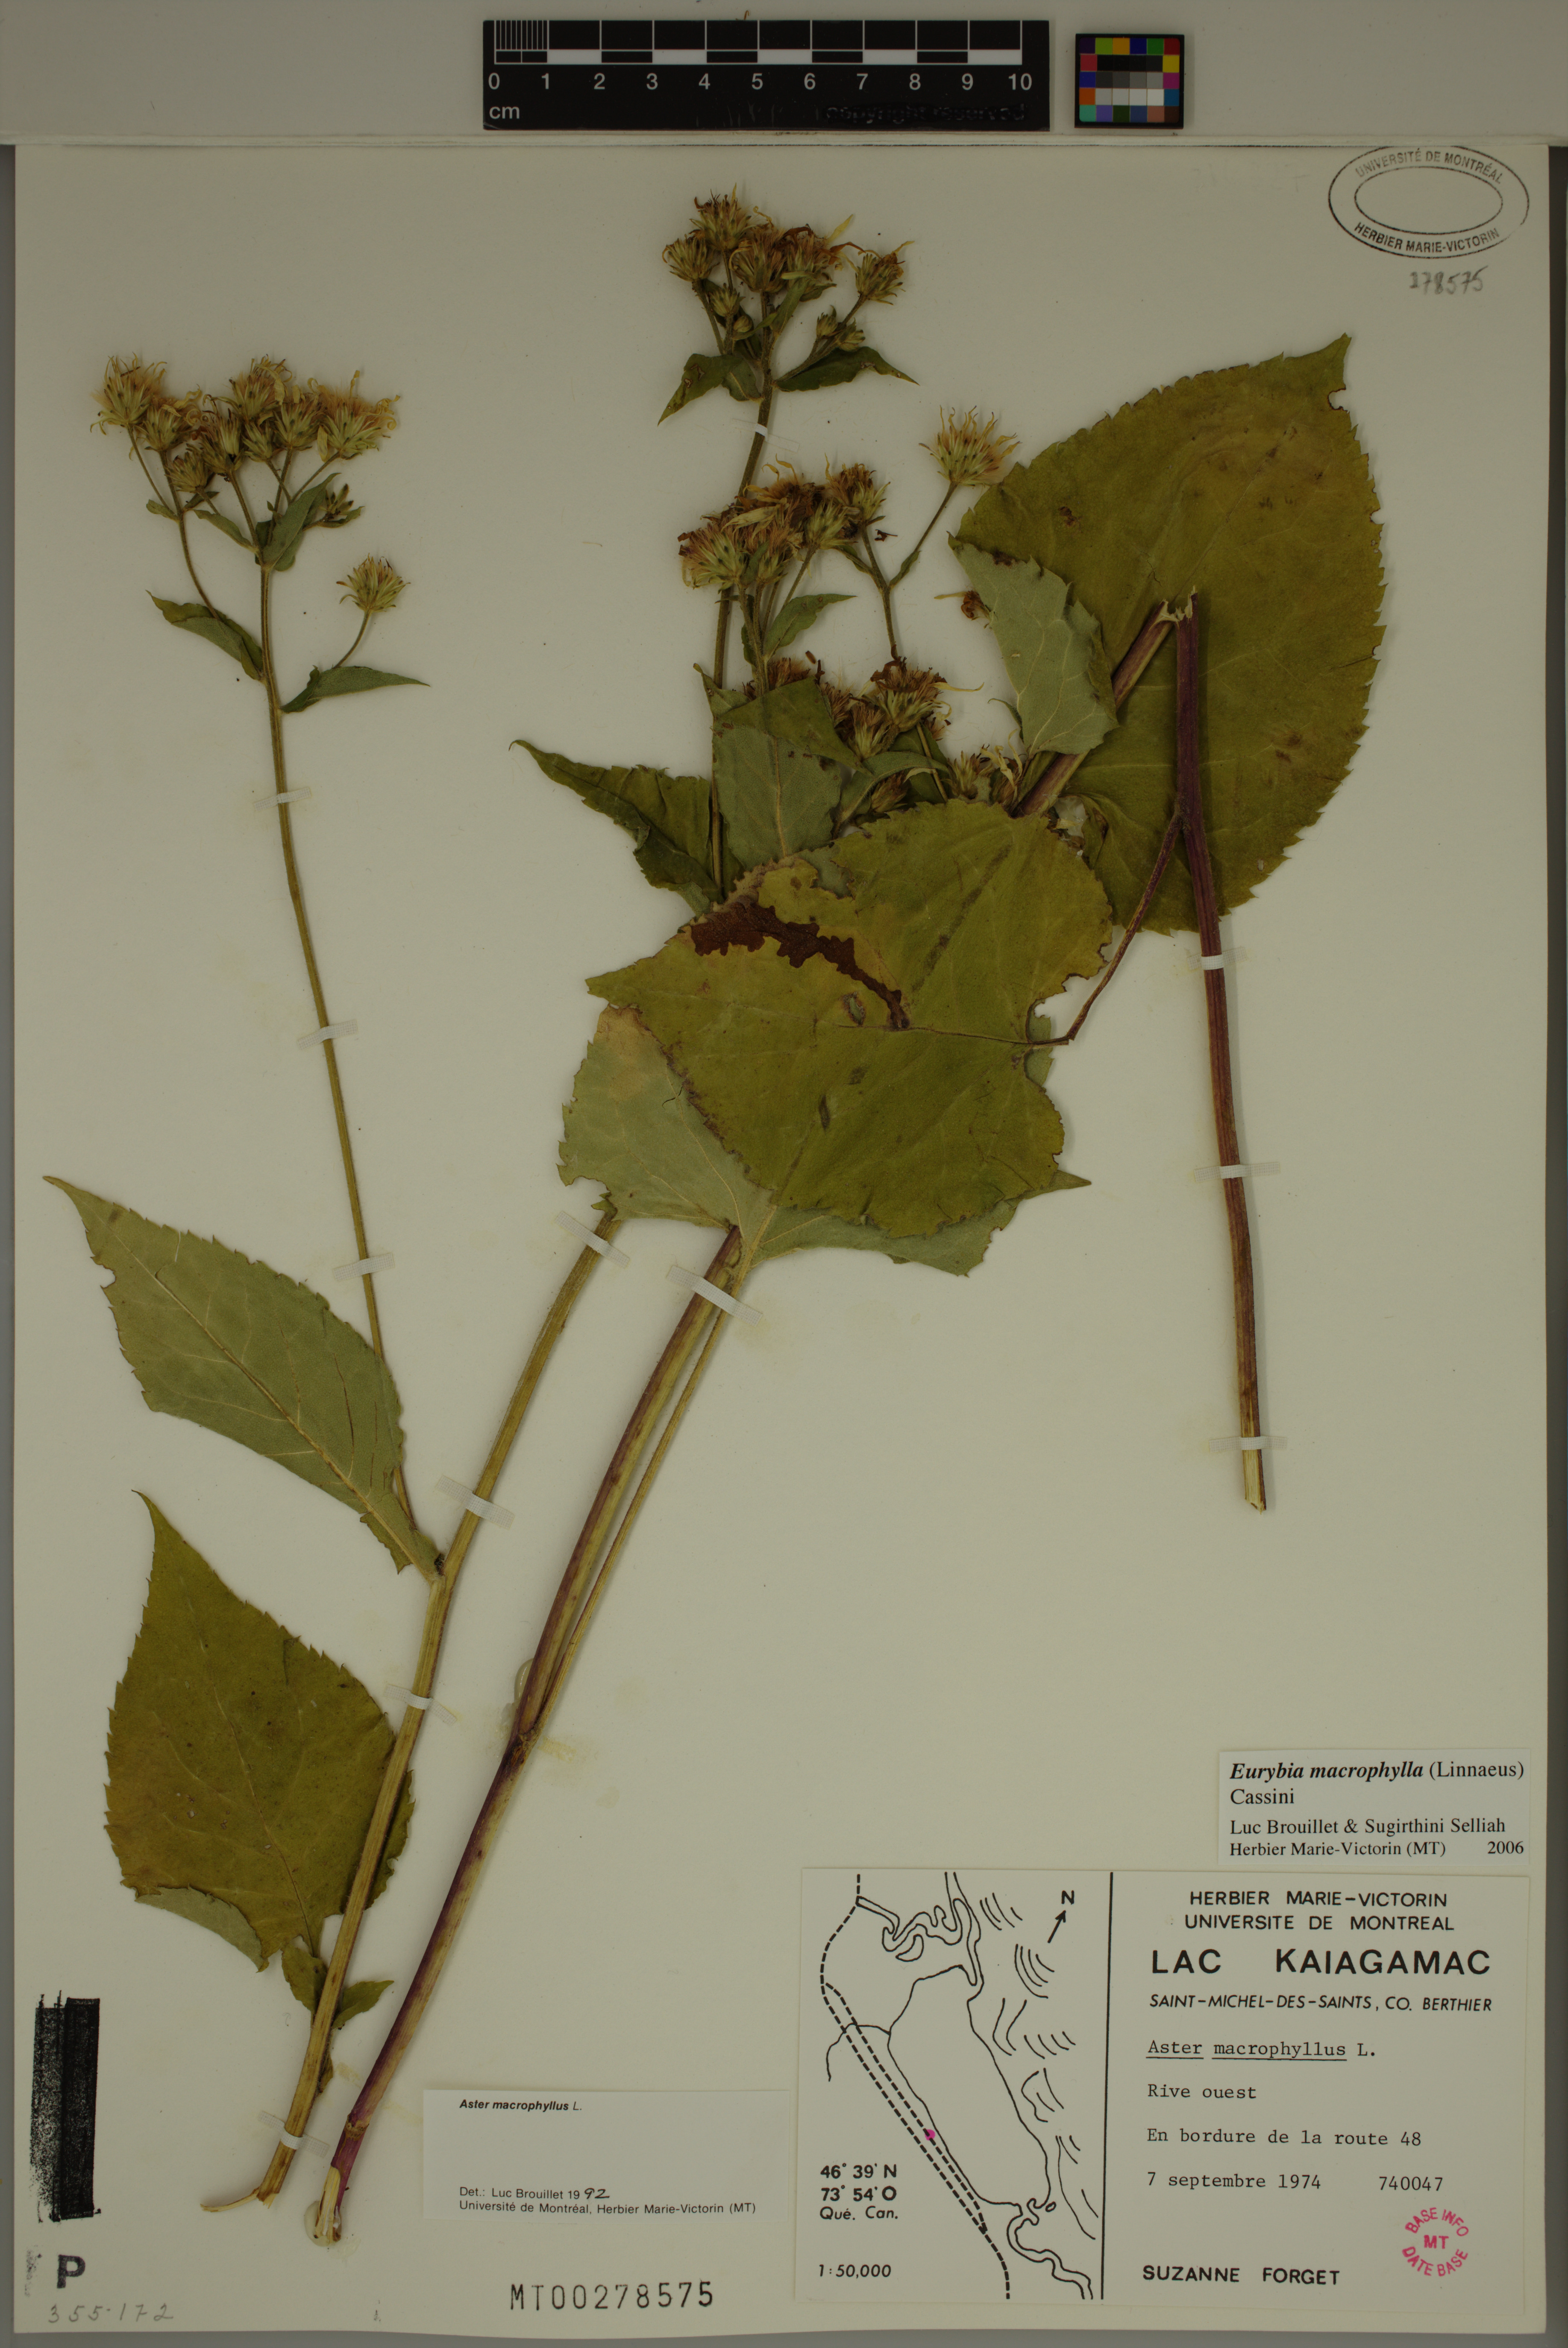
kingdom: Plantae
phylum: Tracheophyta
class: Magnoliopsida
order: Asterales
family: Asteraceae
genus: Eurybia
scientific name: Eurybia macrophylla
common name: Big-leaved aster
